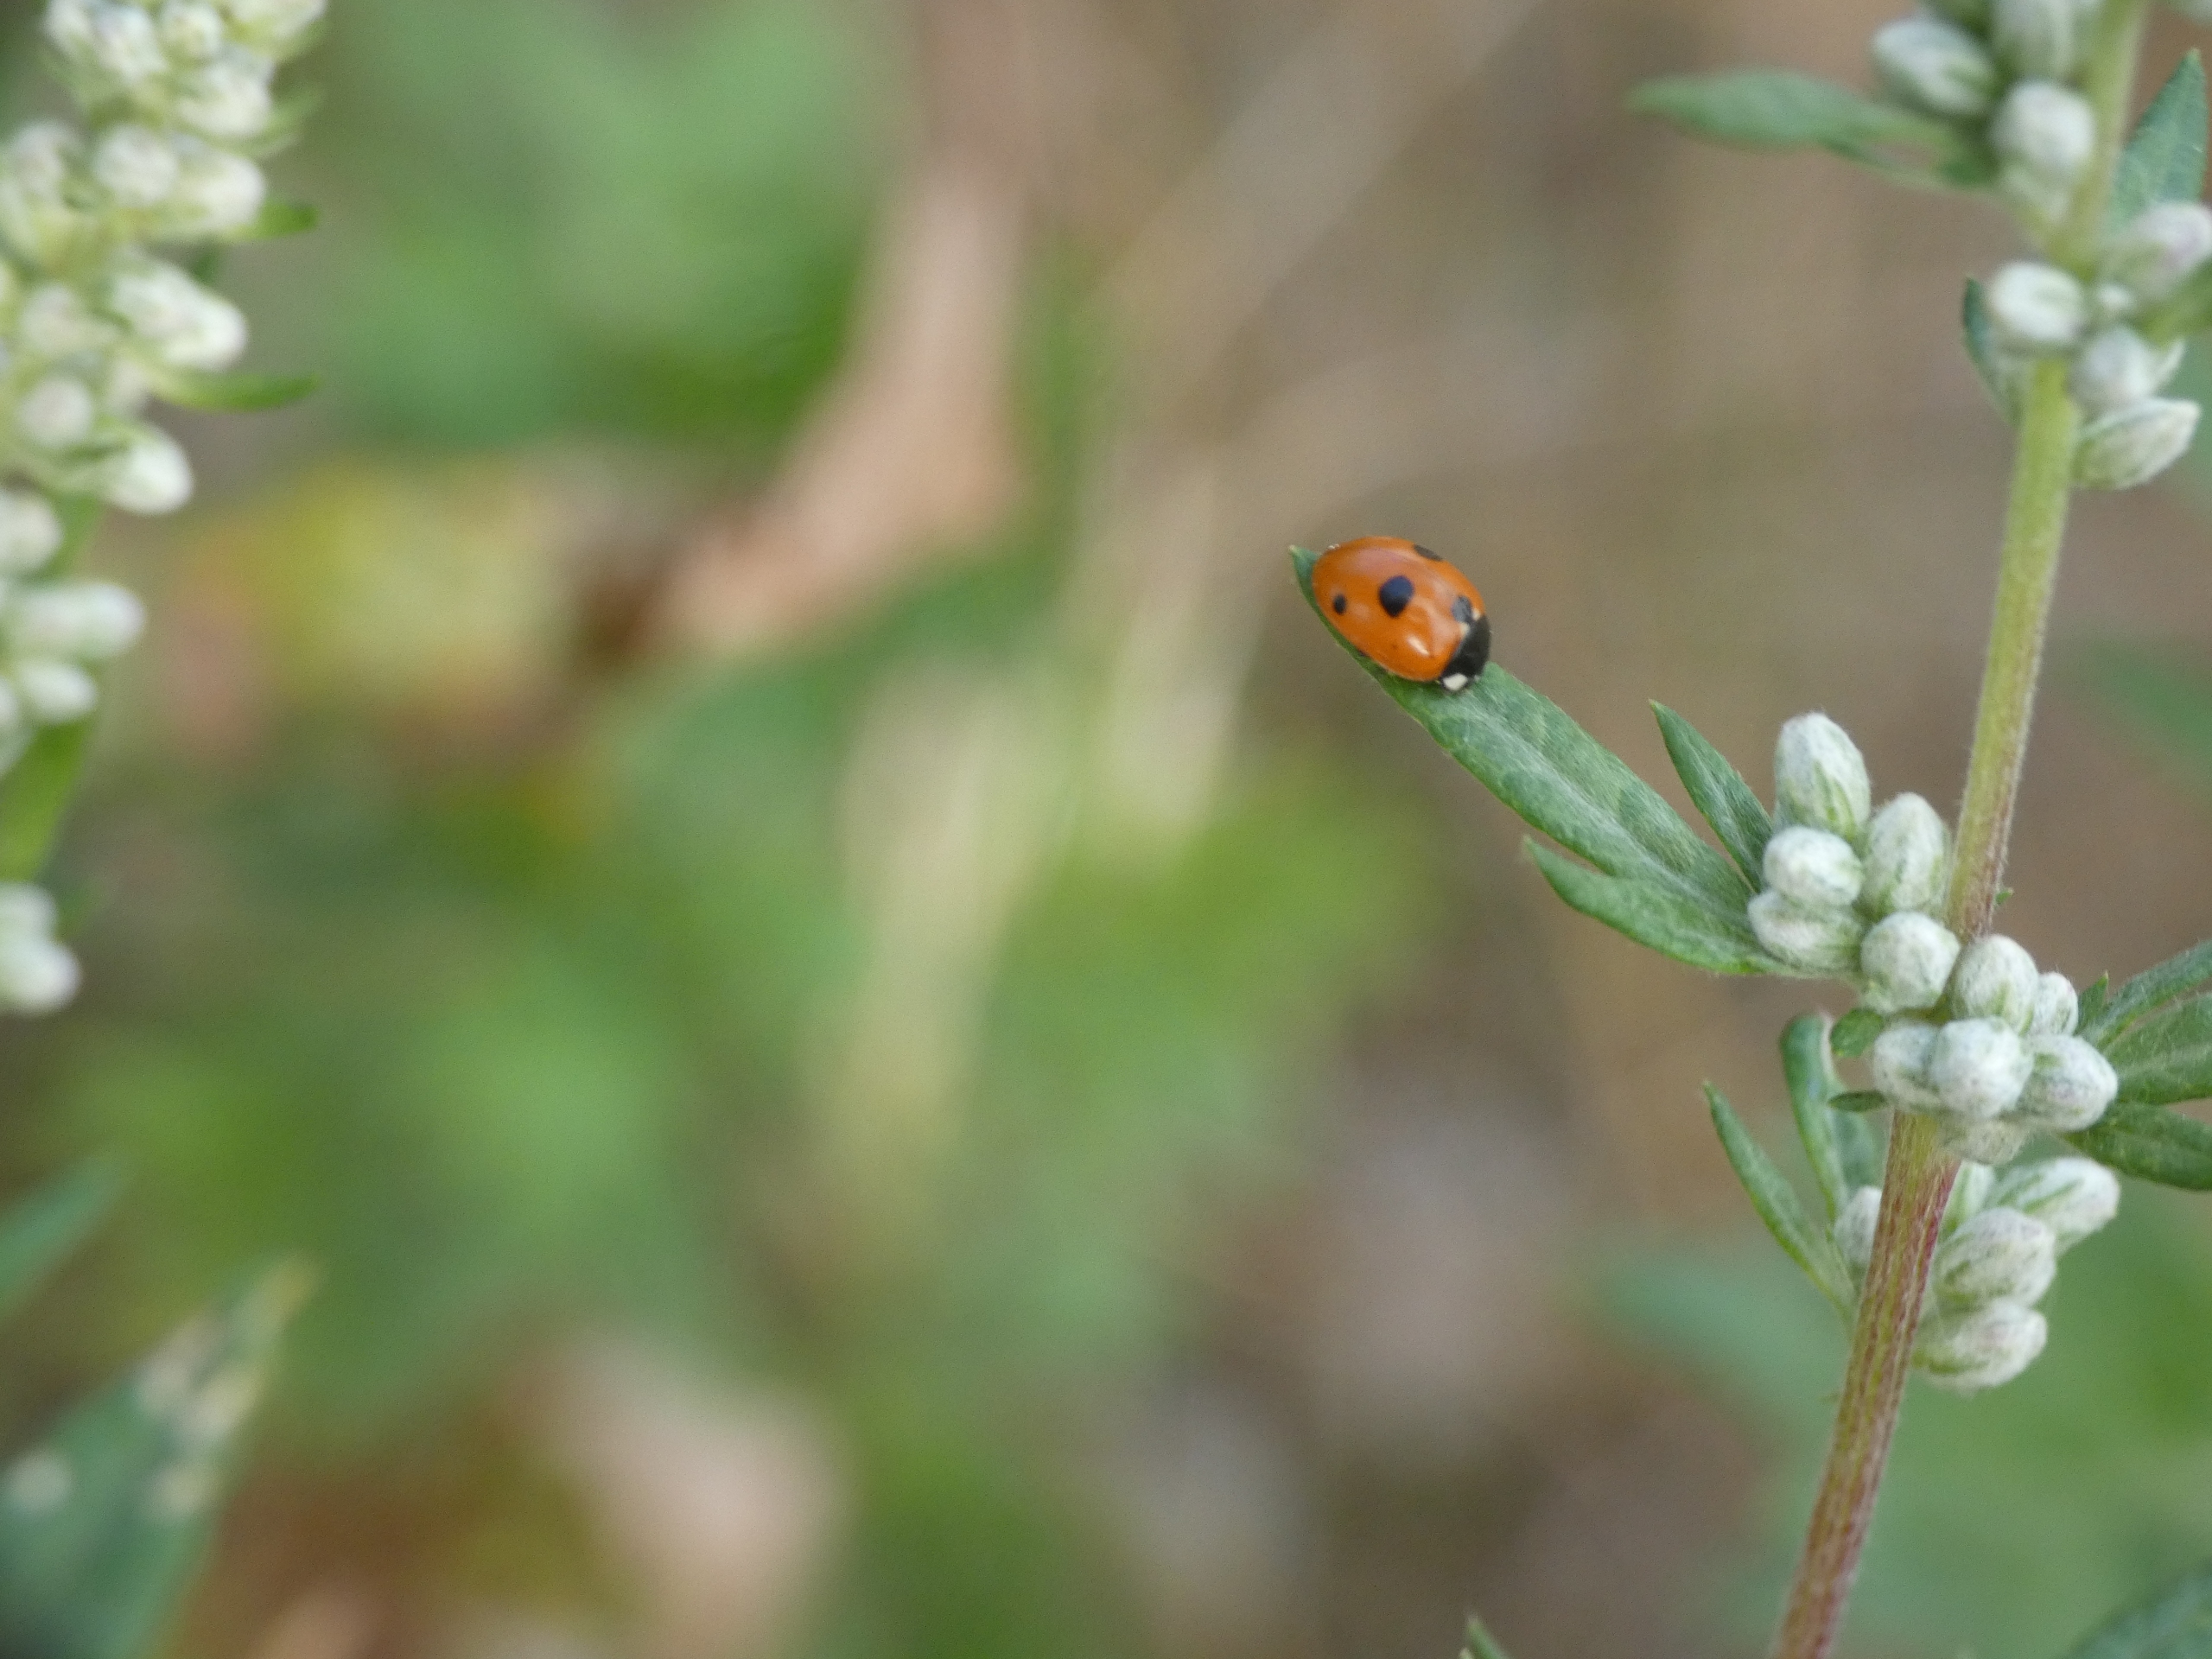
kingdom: Animalia
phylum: Arthropoda
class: Insecta
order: Coleoptera
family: Coccinellidae
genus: Coccinella
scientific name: Coccinella quinquepunctata
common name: Femplettet mariehøne
